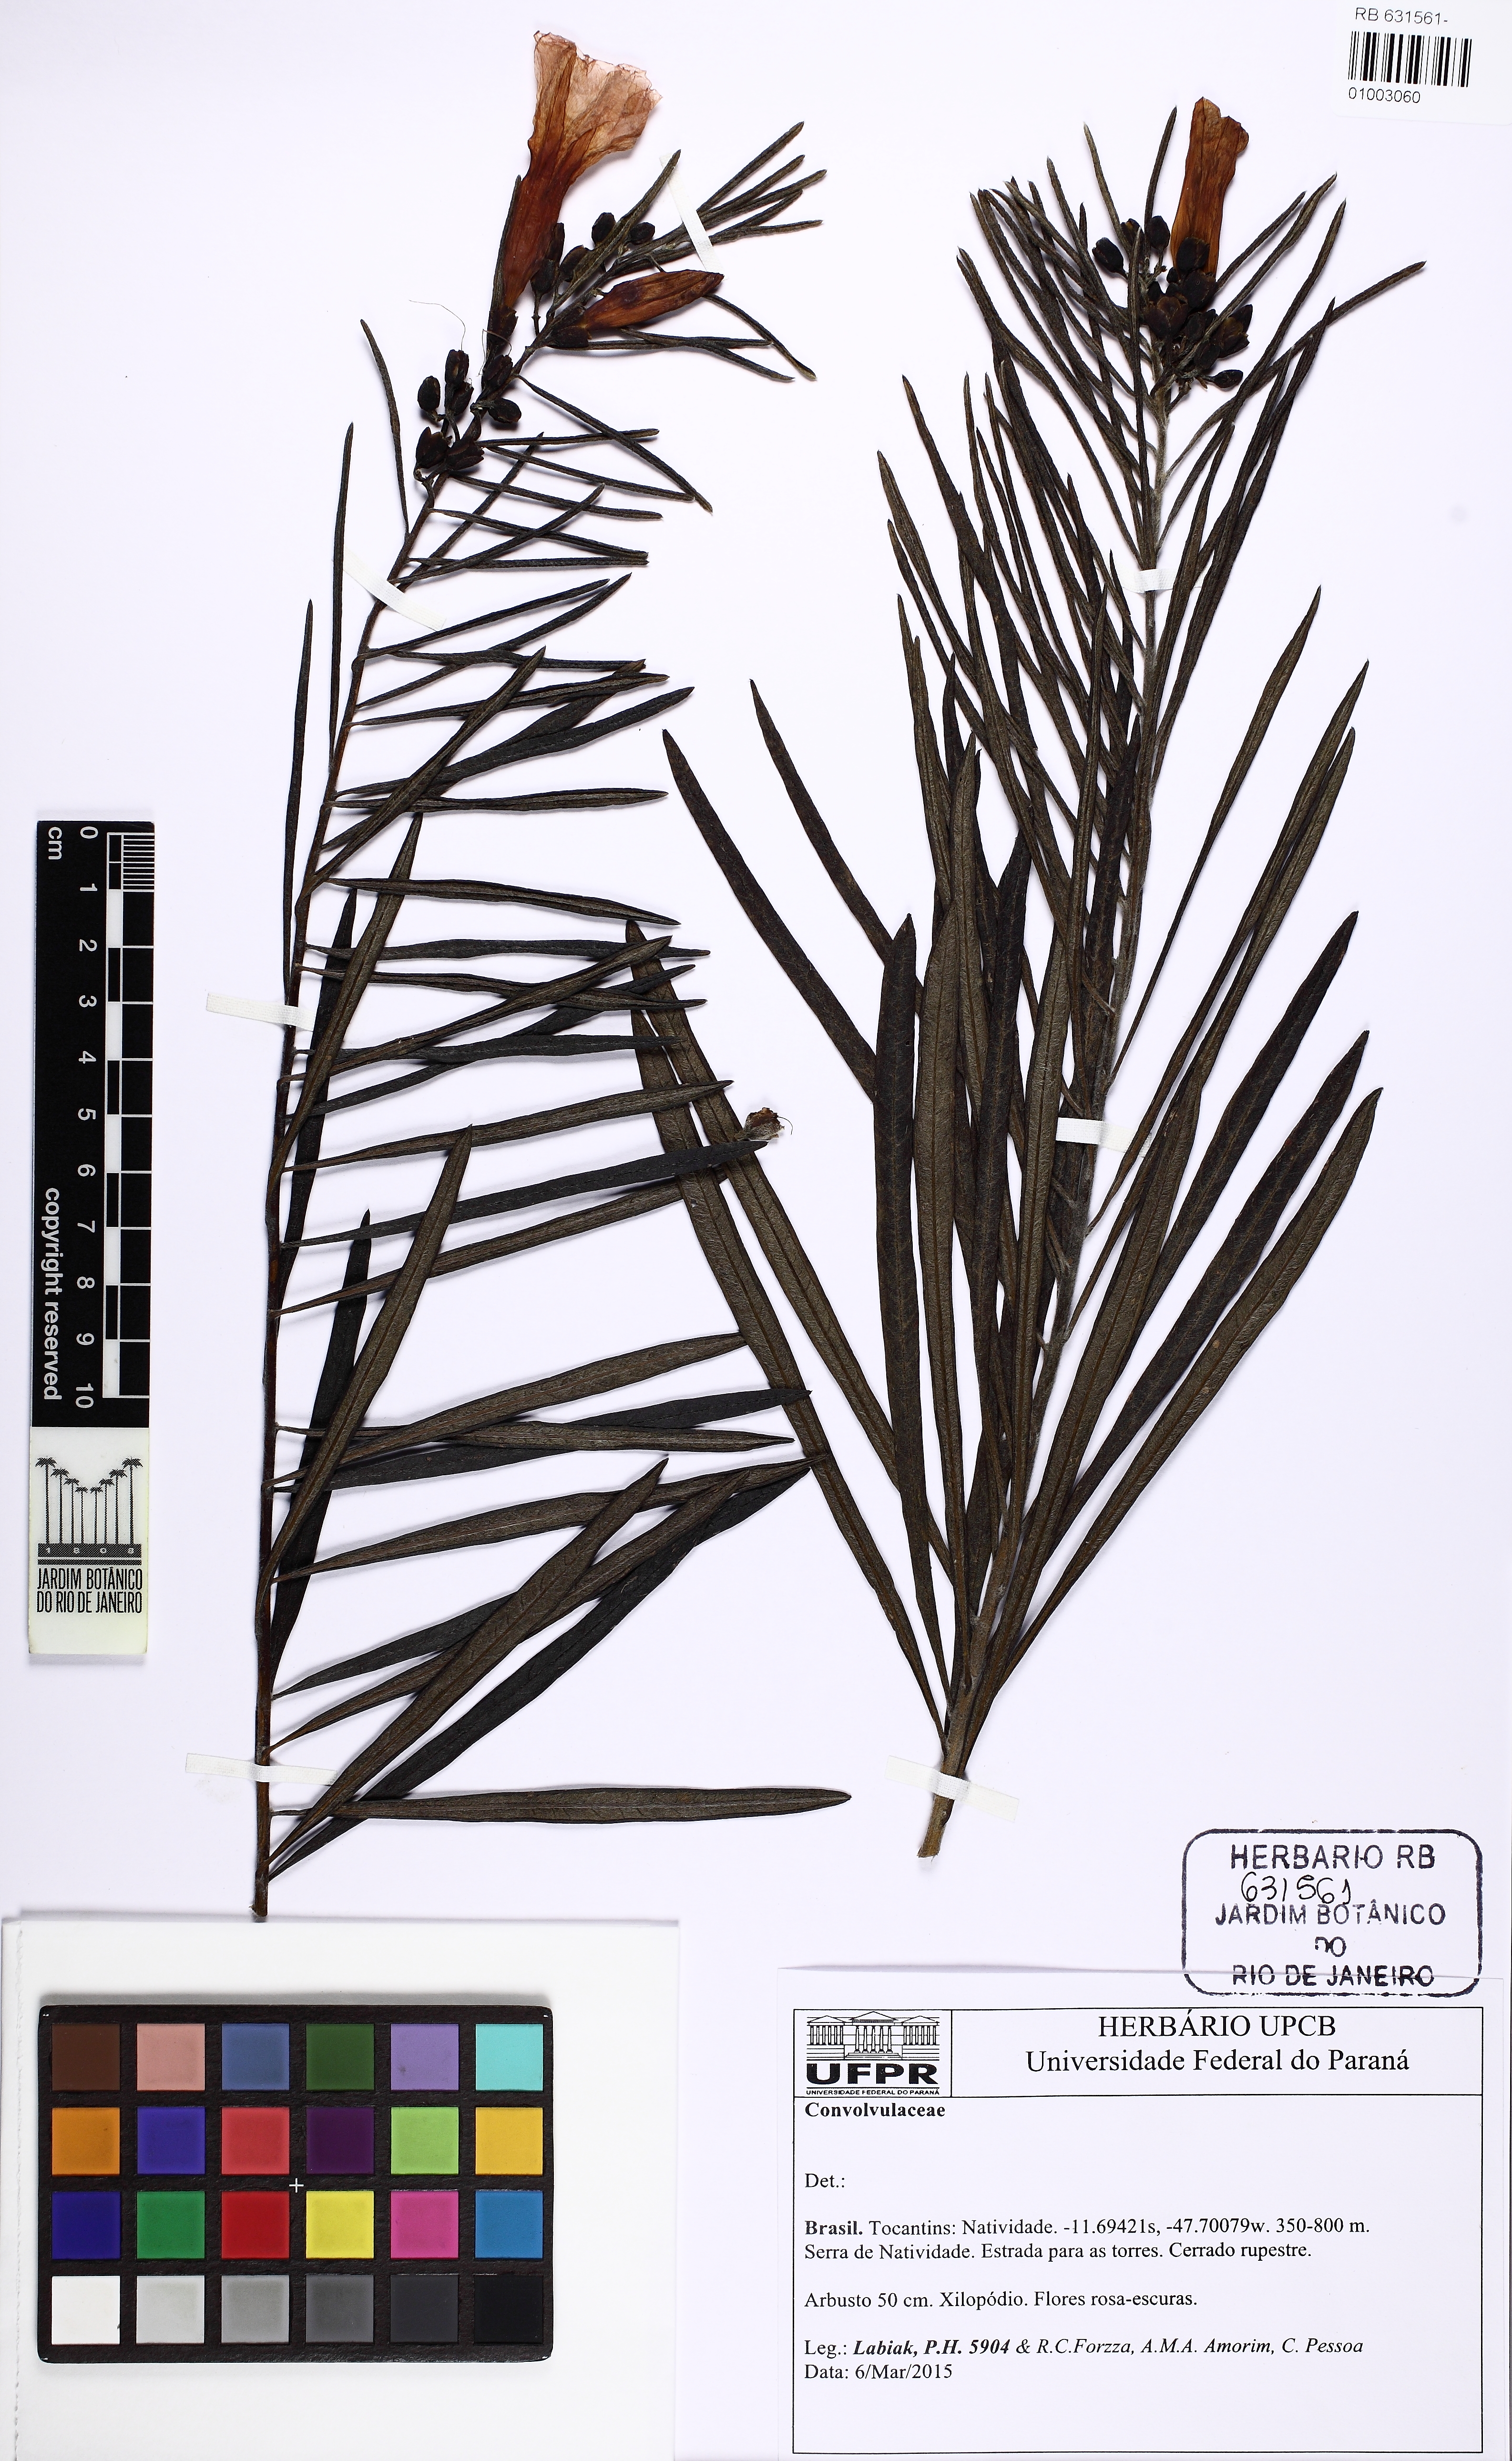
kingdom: Plantae
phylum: Tracheophyta
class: Magnoliopsida
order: Solanales
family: Convolvulaceae
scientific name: Convolvulaceae
